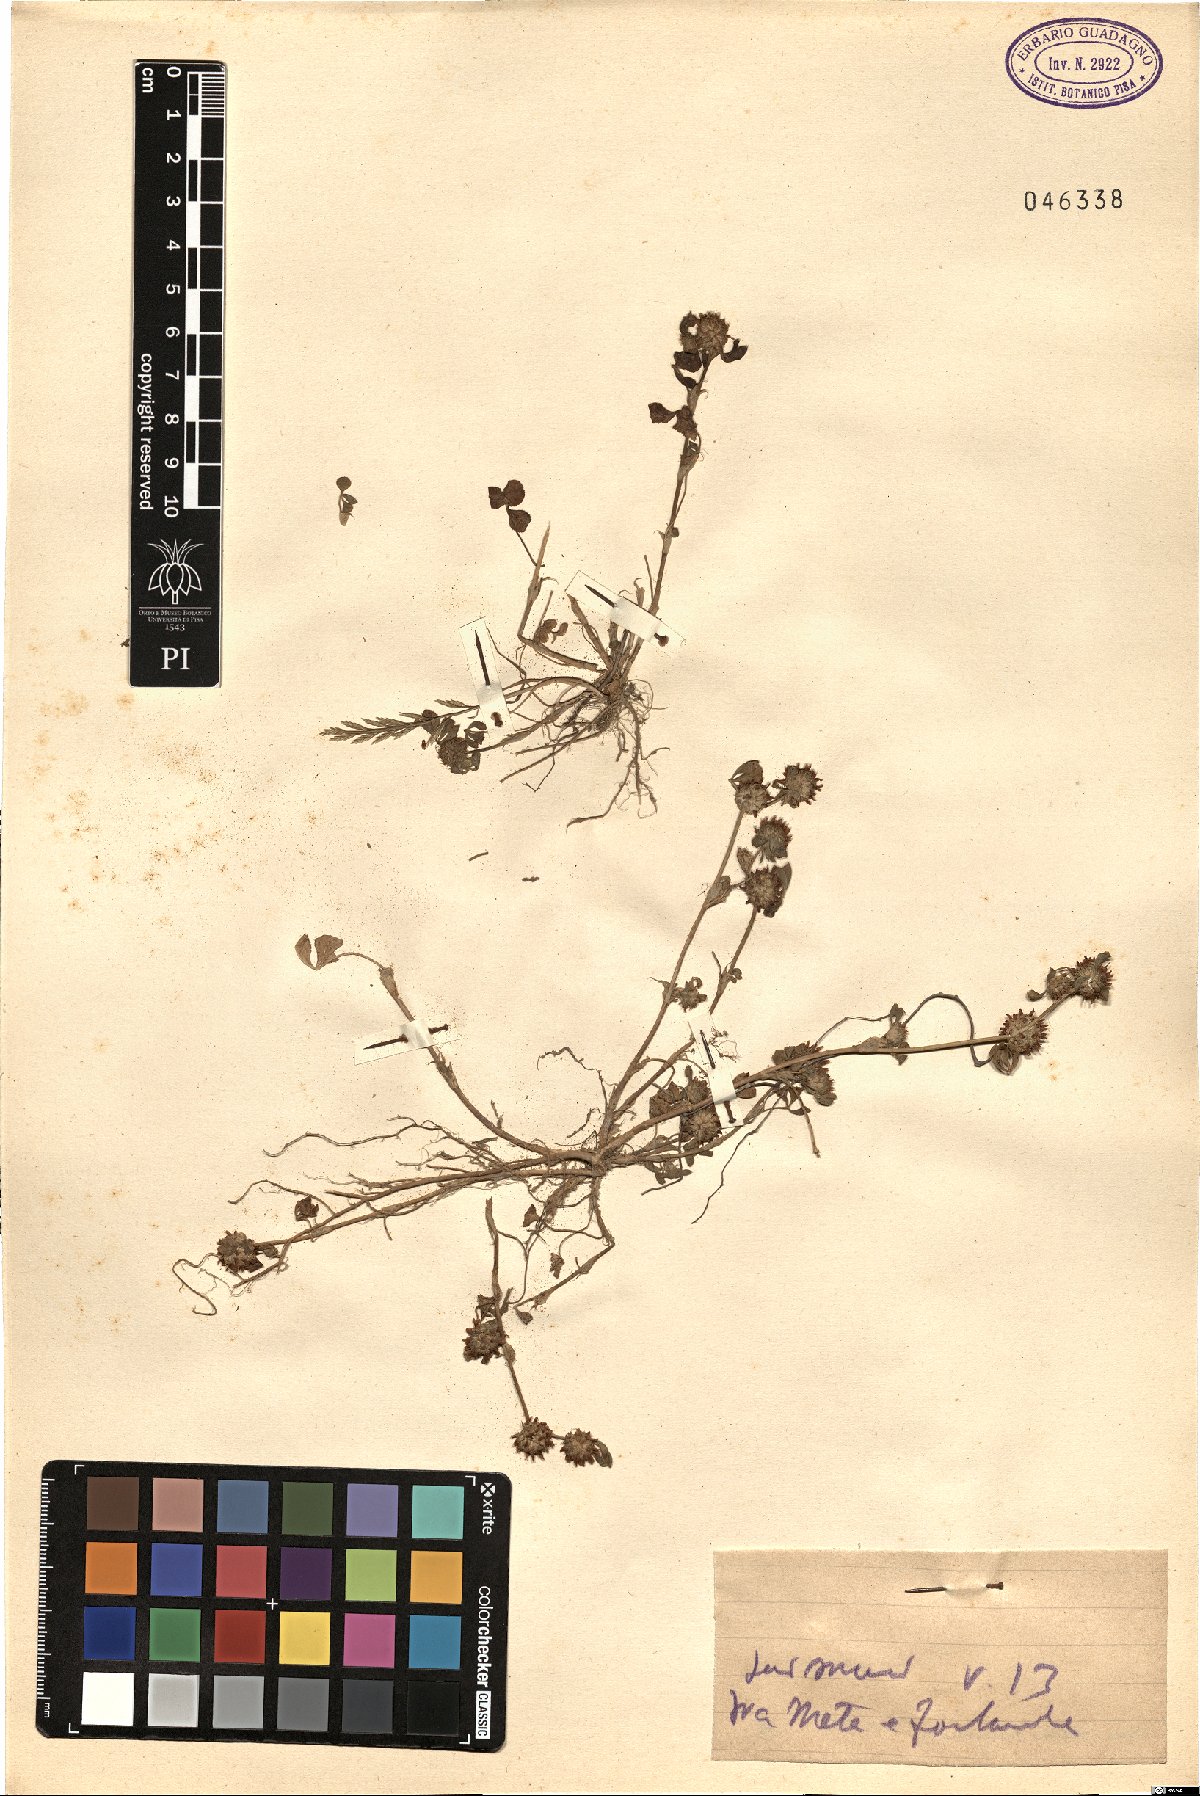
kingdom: Plantae
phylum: Tracheophyta
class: Magnoliopsida
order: Fabales
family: Fabaceae
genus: Trifolium
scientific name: Trifolium
